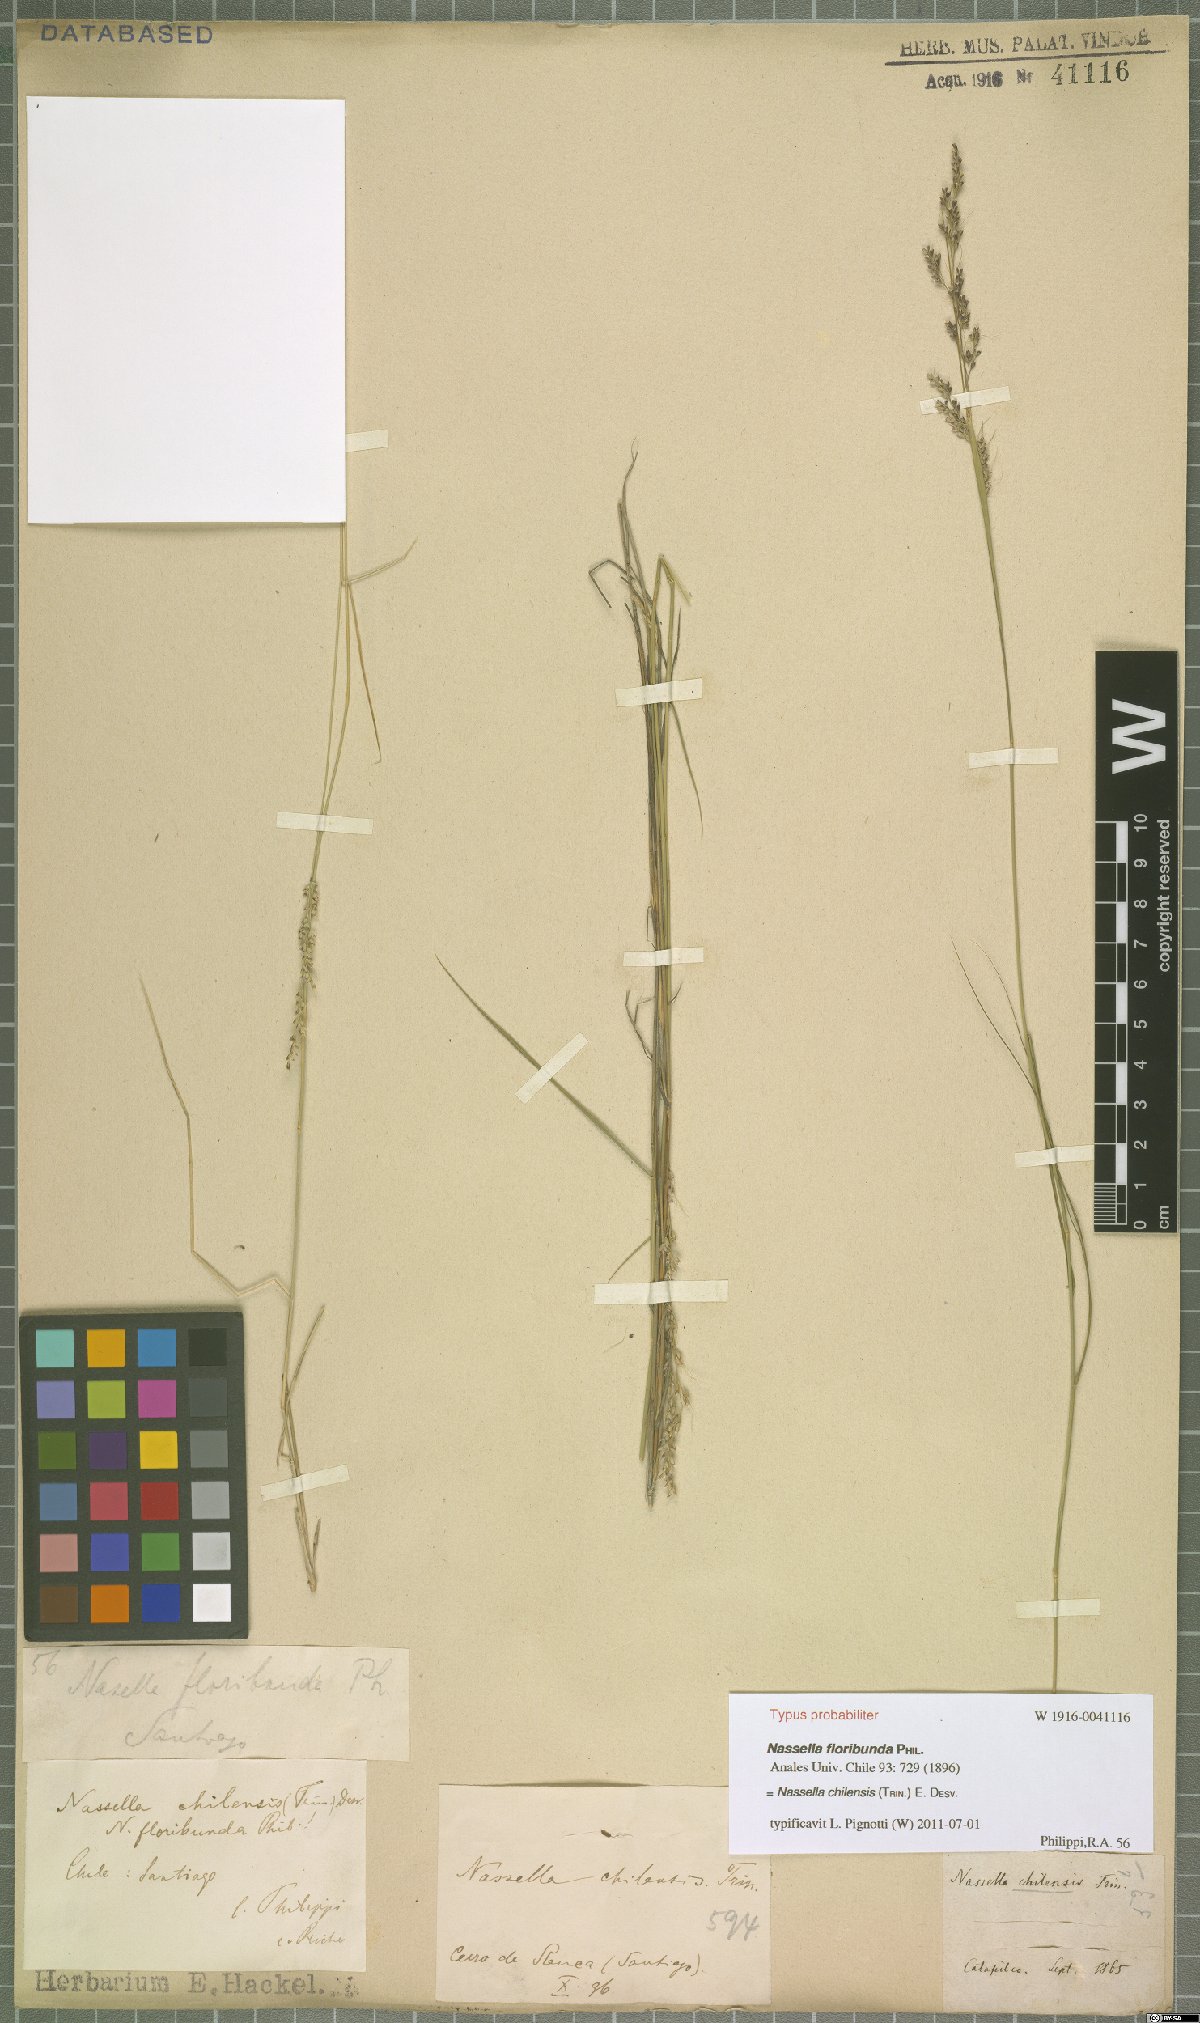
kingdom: Plantae
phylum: Tracheophyta
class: Liliopsida
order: Poales
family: Poaceae
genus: Nassella
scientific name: Nassella chilensis
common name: Chilean needlegrass
